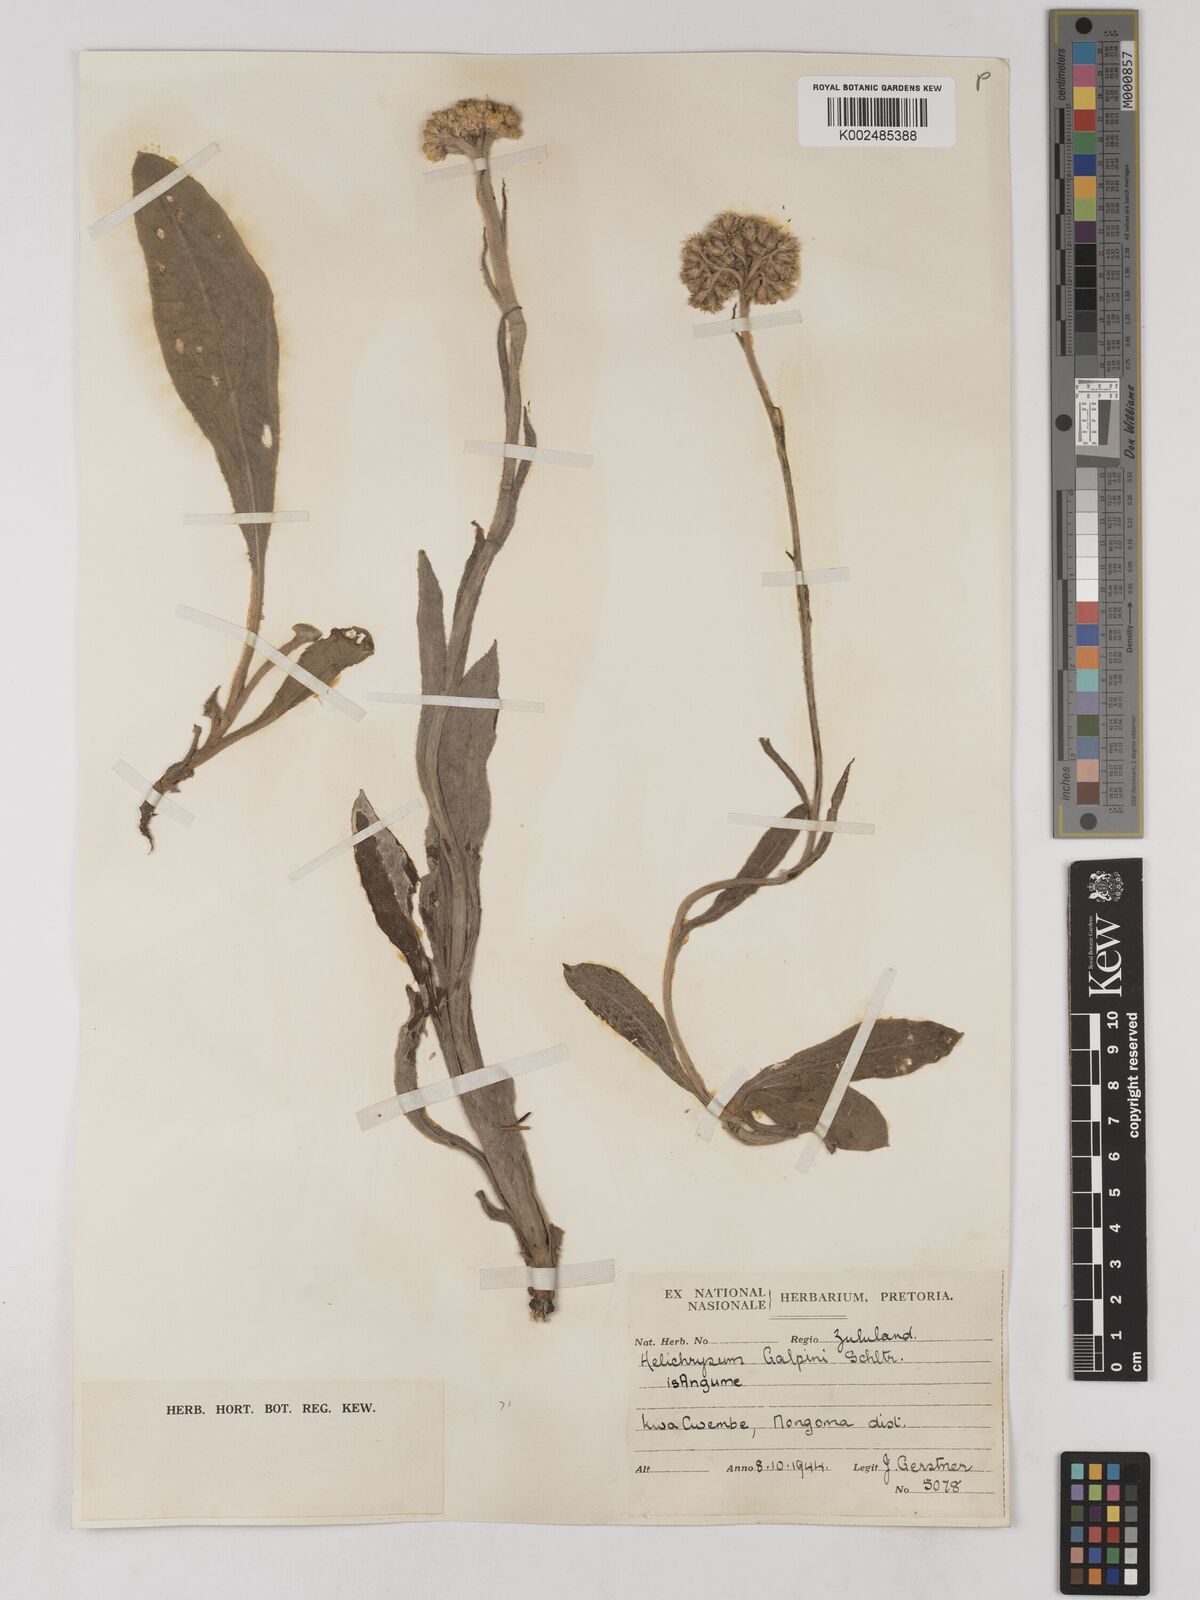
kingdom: Plantae
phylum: Tracheophyta
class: Magnoliopsida
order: Asterales
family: Asteraceae
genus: Helichrysum
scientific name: Helichrysum acutatum
